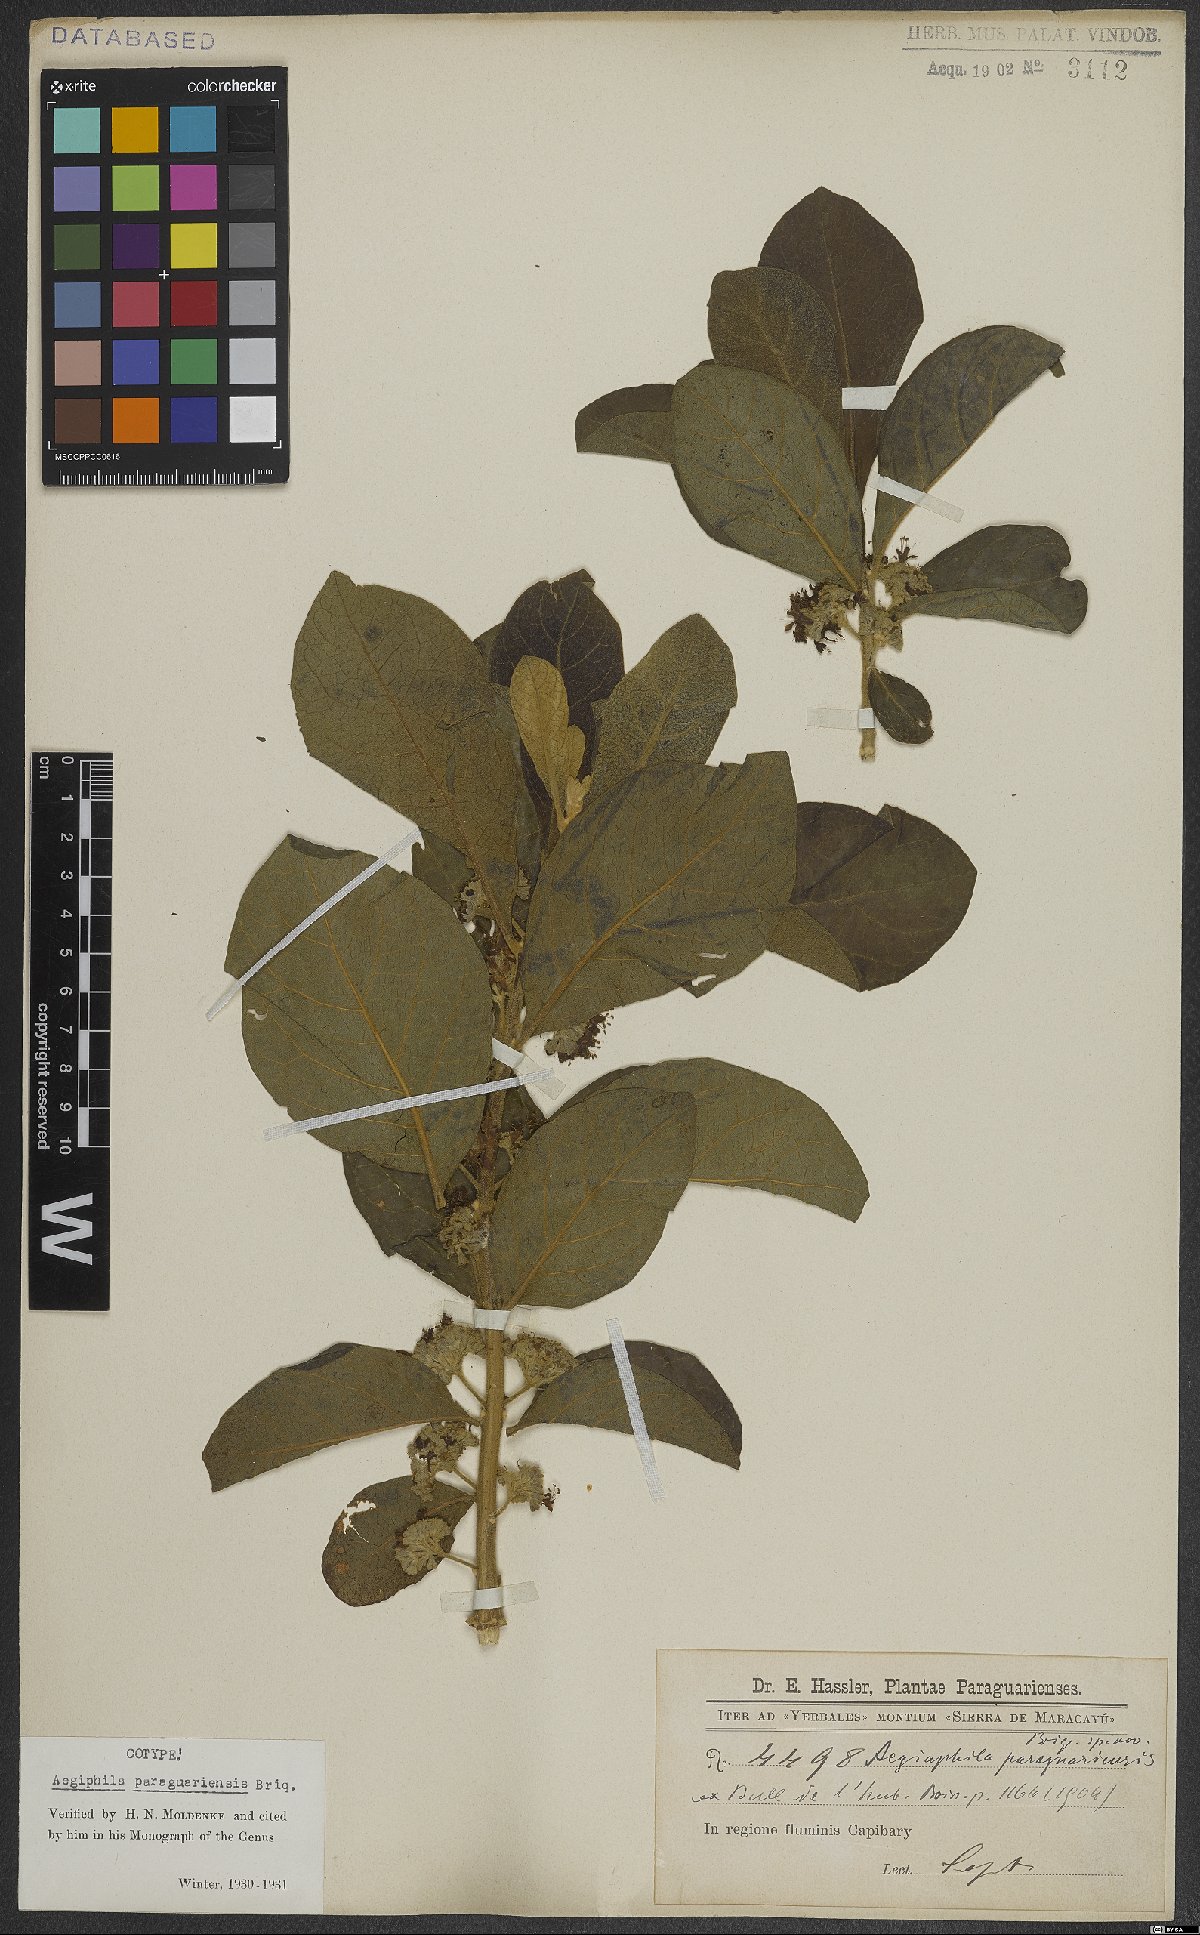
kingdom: Plantae
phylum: Tracheophyta
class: Magnoliopsida
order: Lamiales
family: Lamiaceae
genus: Aegiphila
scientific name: Aegiphila paraguariensis
